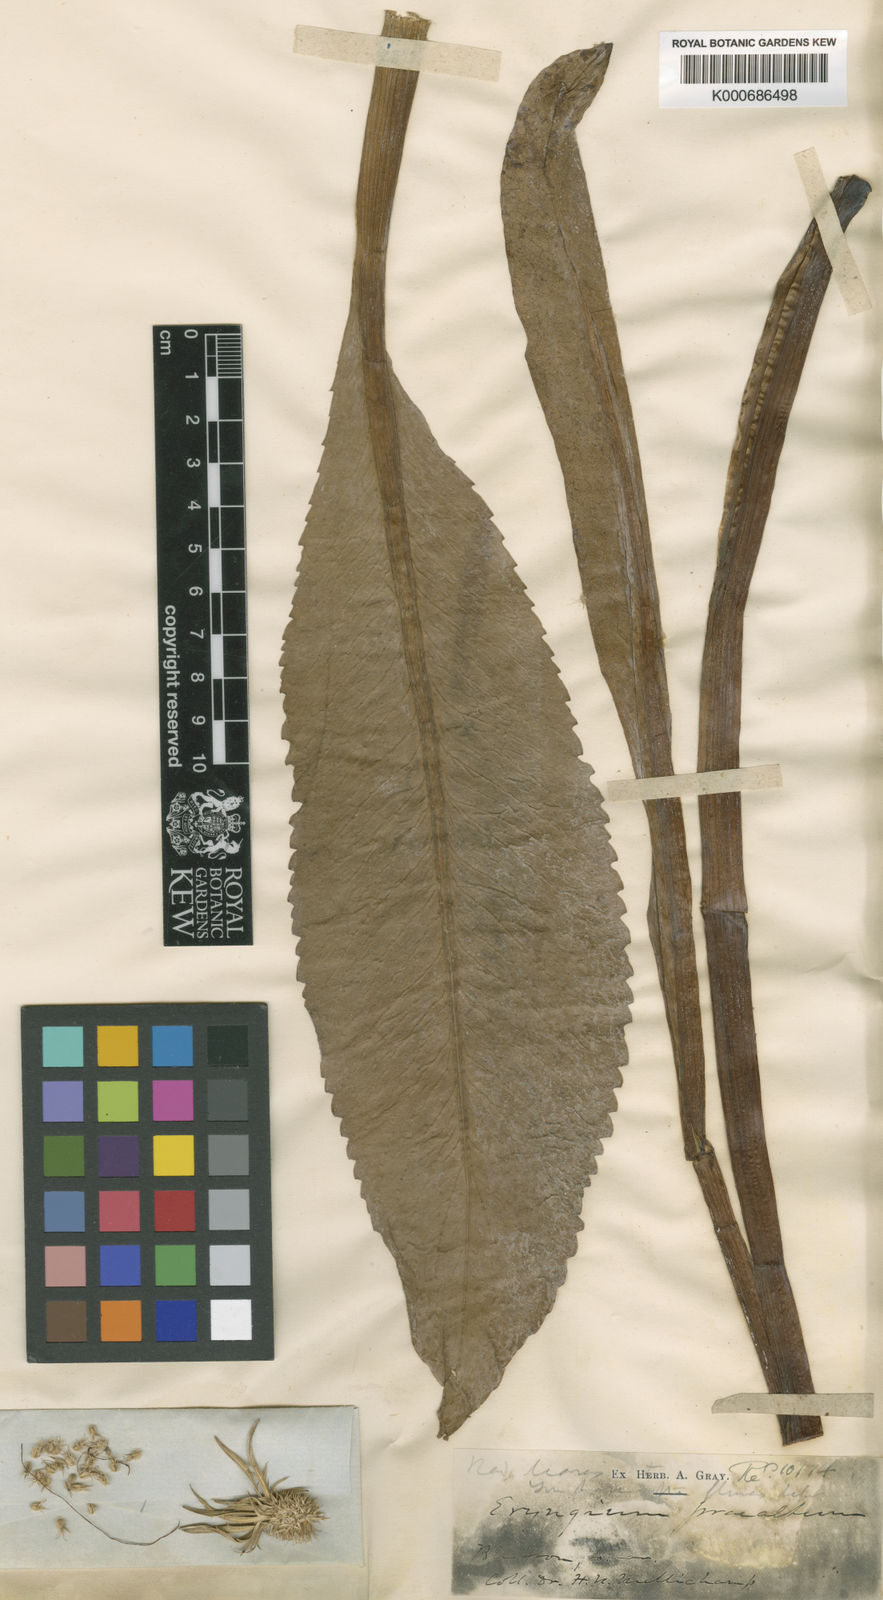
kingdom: Plantae
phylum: Tracheophyta
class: Magnoliopsida
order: Apiales
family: Apiaceae
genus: Eryngium
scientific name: Eryngium aquaticum
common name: Water eryngo
